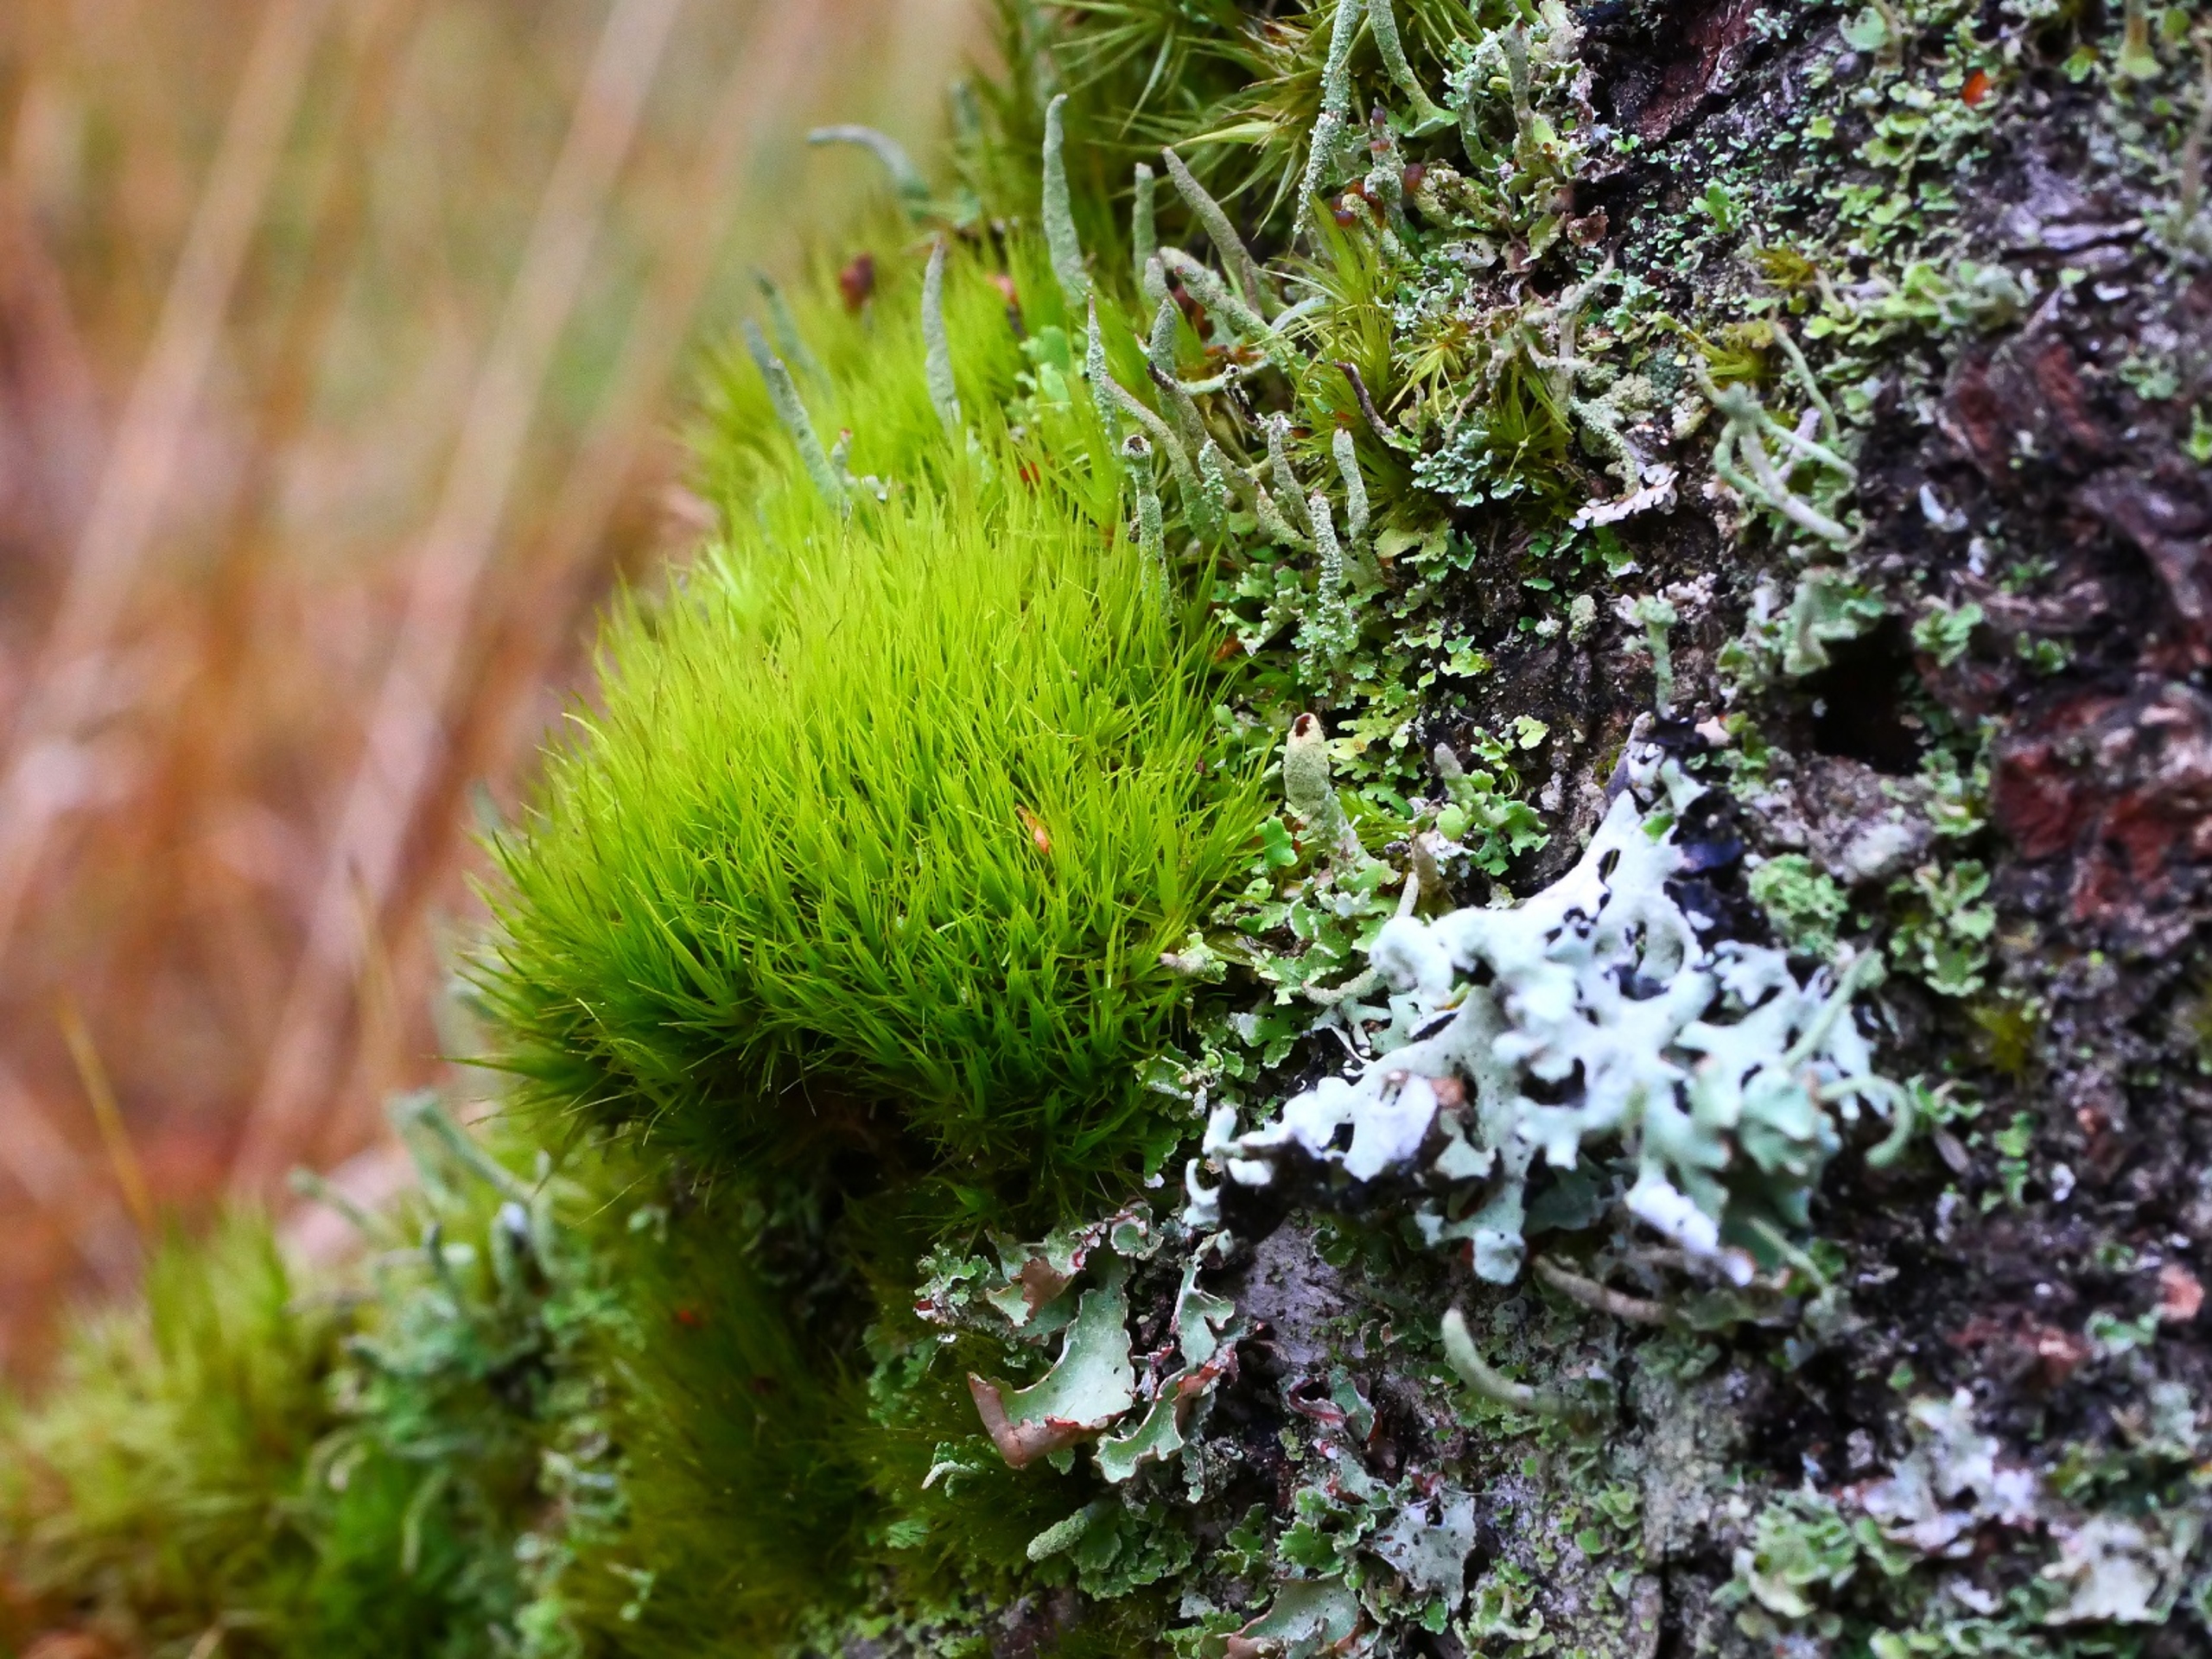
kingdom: Plantae
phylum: Bryophyta
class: Bryopsida
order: Dicranales
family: Dicranaceae
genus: Orthodicranum
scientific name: Orthodicranum tauricum
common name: Skør tyndvinge
